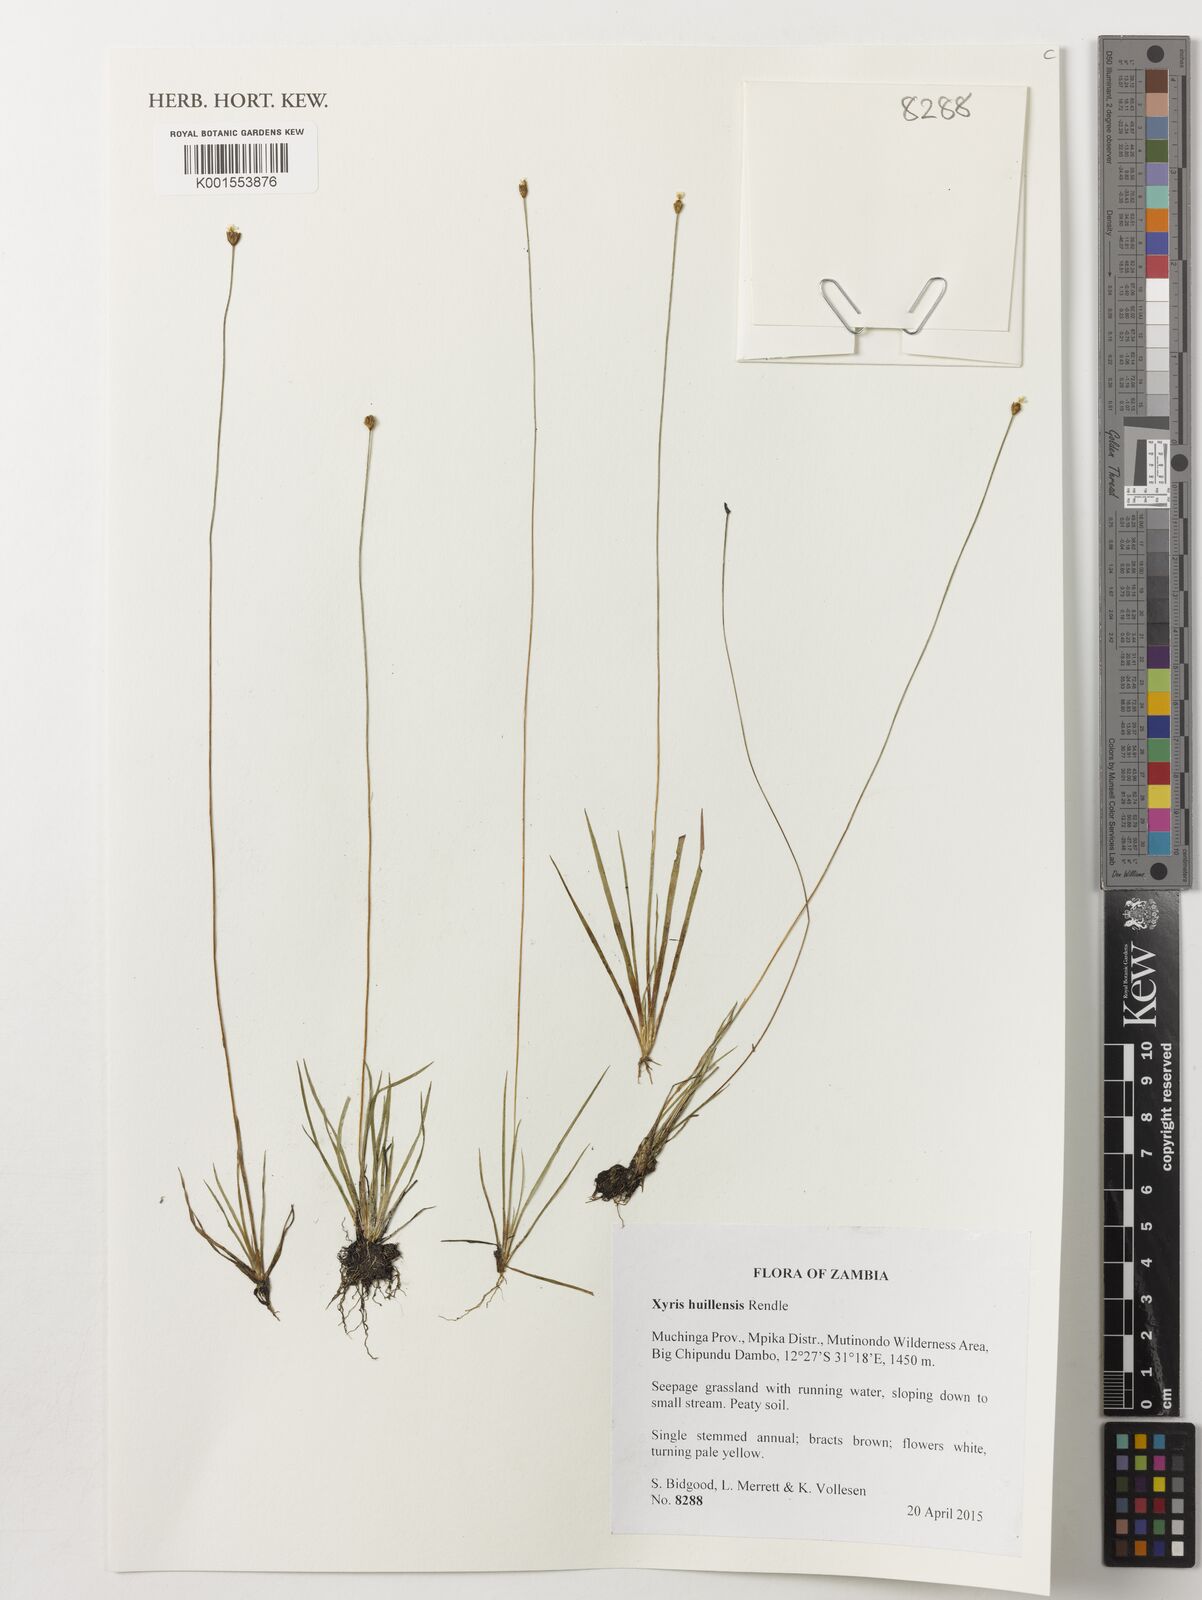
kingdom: Plantae
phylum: Tracheophyta
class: Liliopsida
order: Poales
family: Xyridaceae
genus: Xyris
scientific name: Xyris huillensis
